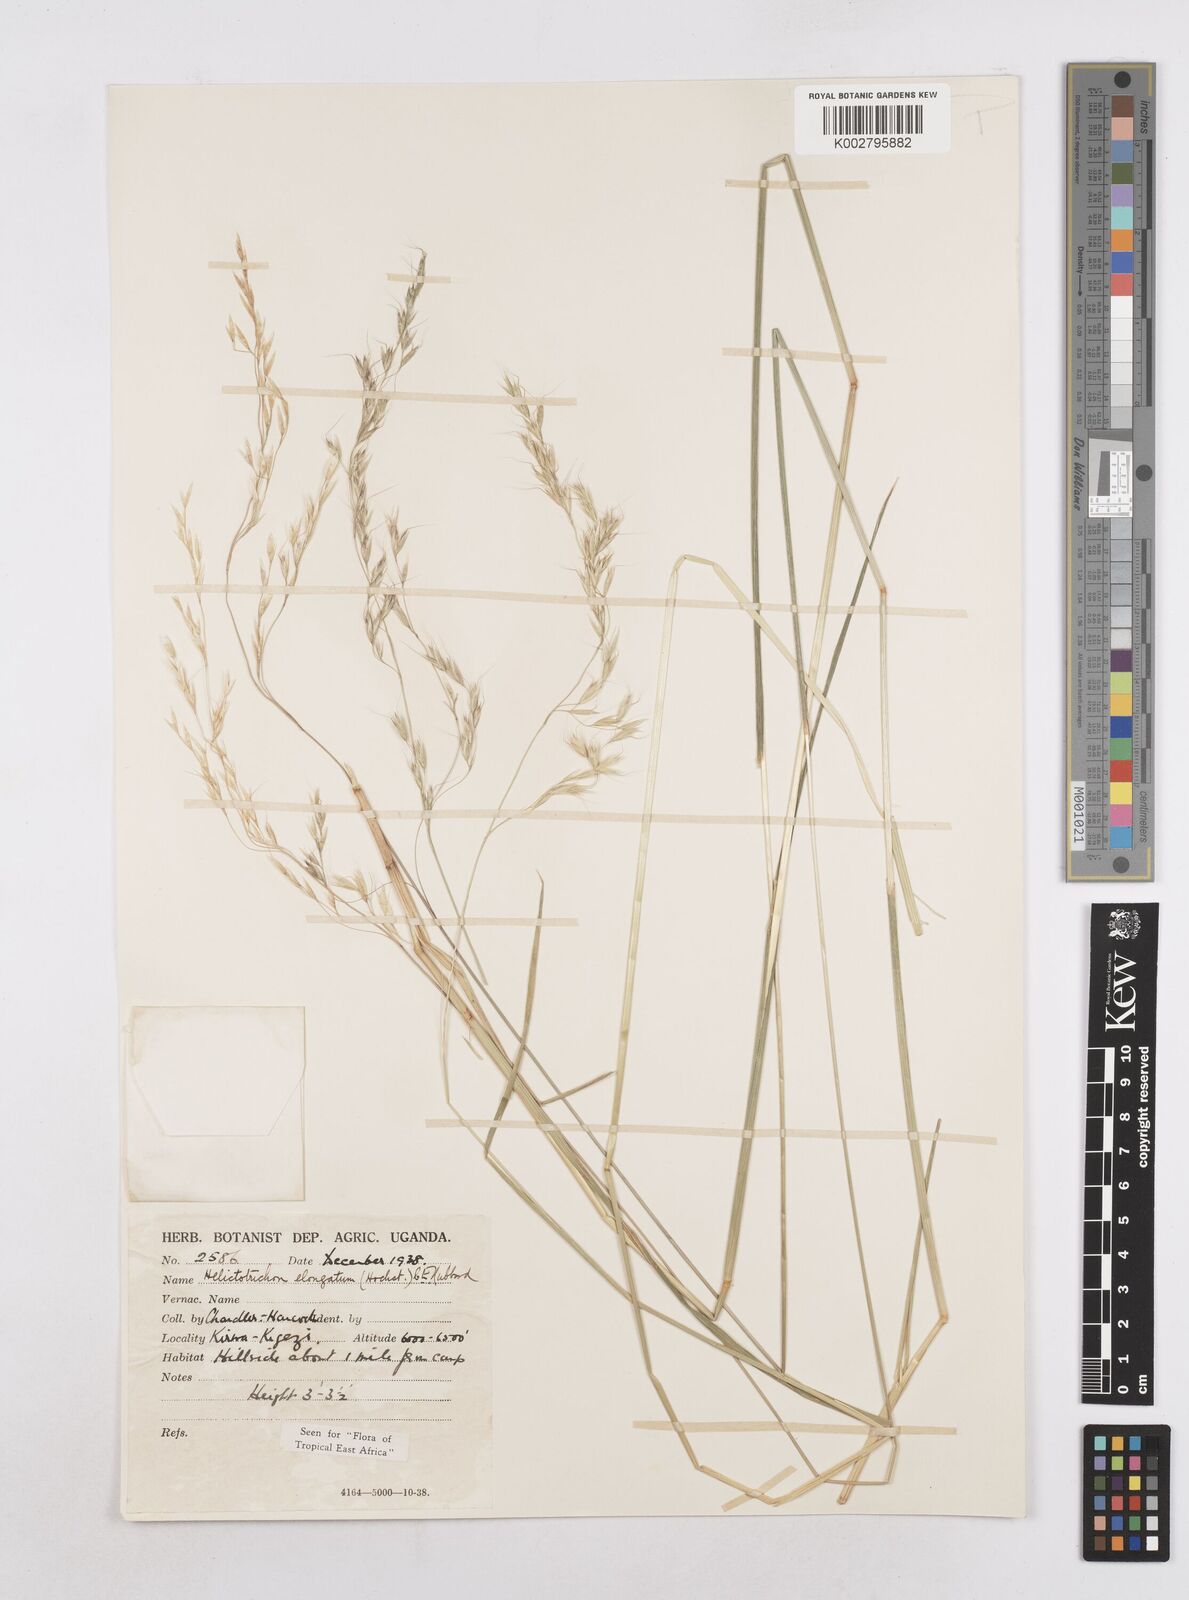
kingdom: Plantae
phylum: Tracheophyta
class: Liliopsida
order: Poales
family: Poaceae
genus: Trisetopsis
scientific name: Trisetopsis elongata
